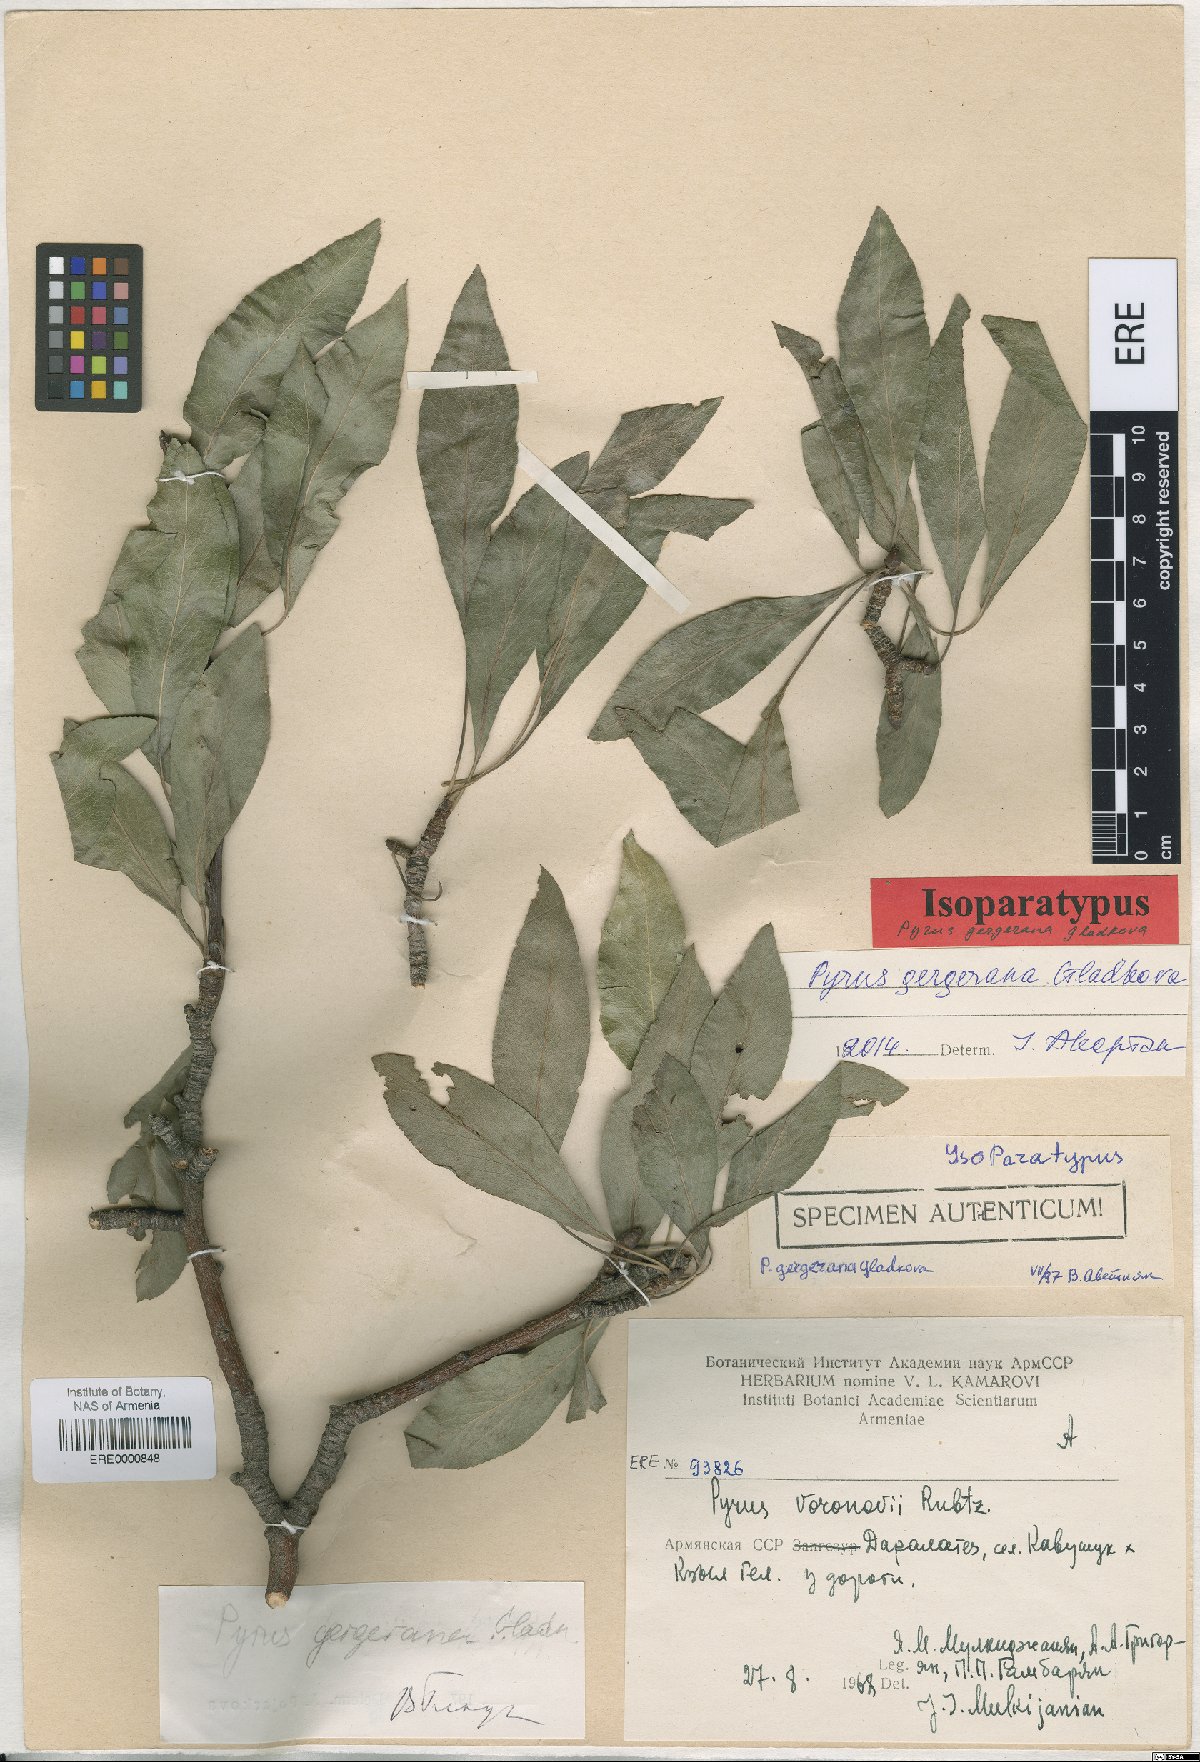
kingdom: Plantae
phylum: Tracheophyta
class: Magnoliopsida
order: Rosales
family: Rosaceae
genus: Pyrus
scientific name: Pyrus gergerana
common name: Gergeranian pear
